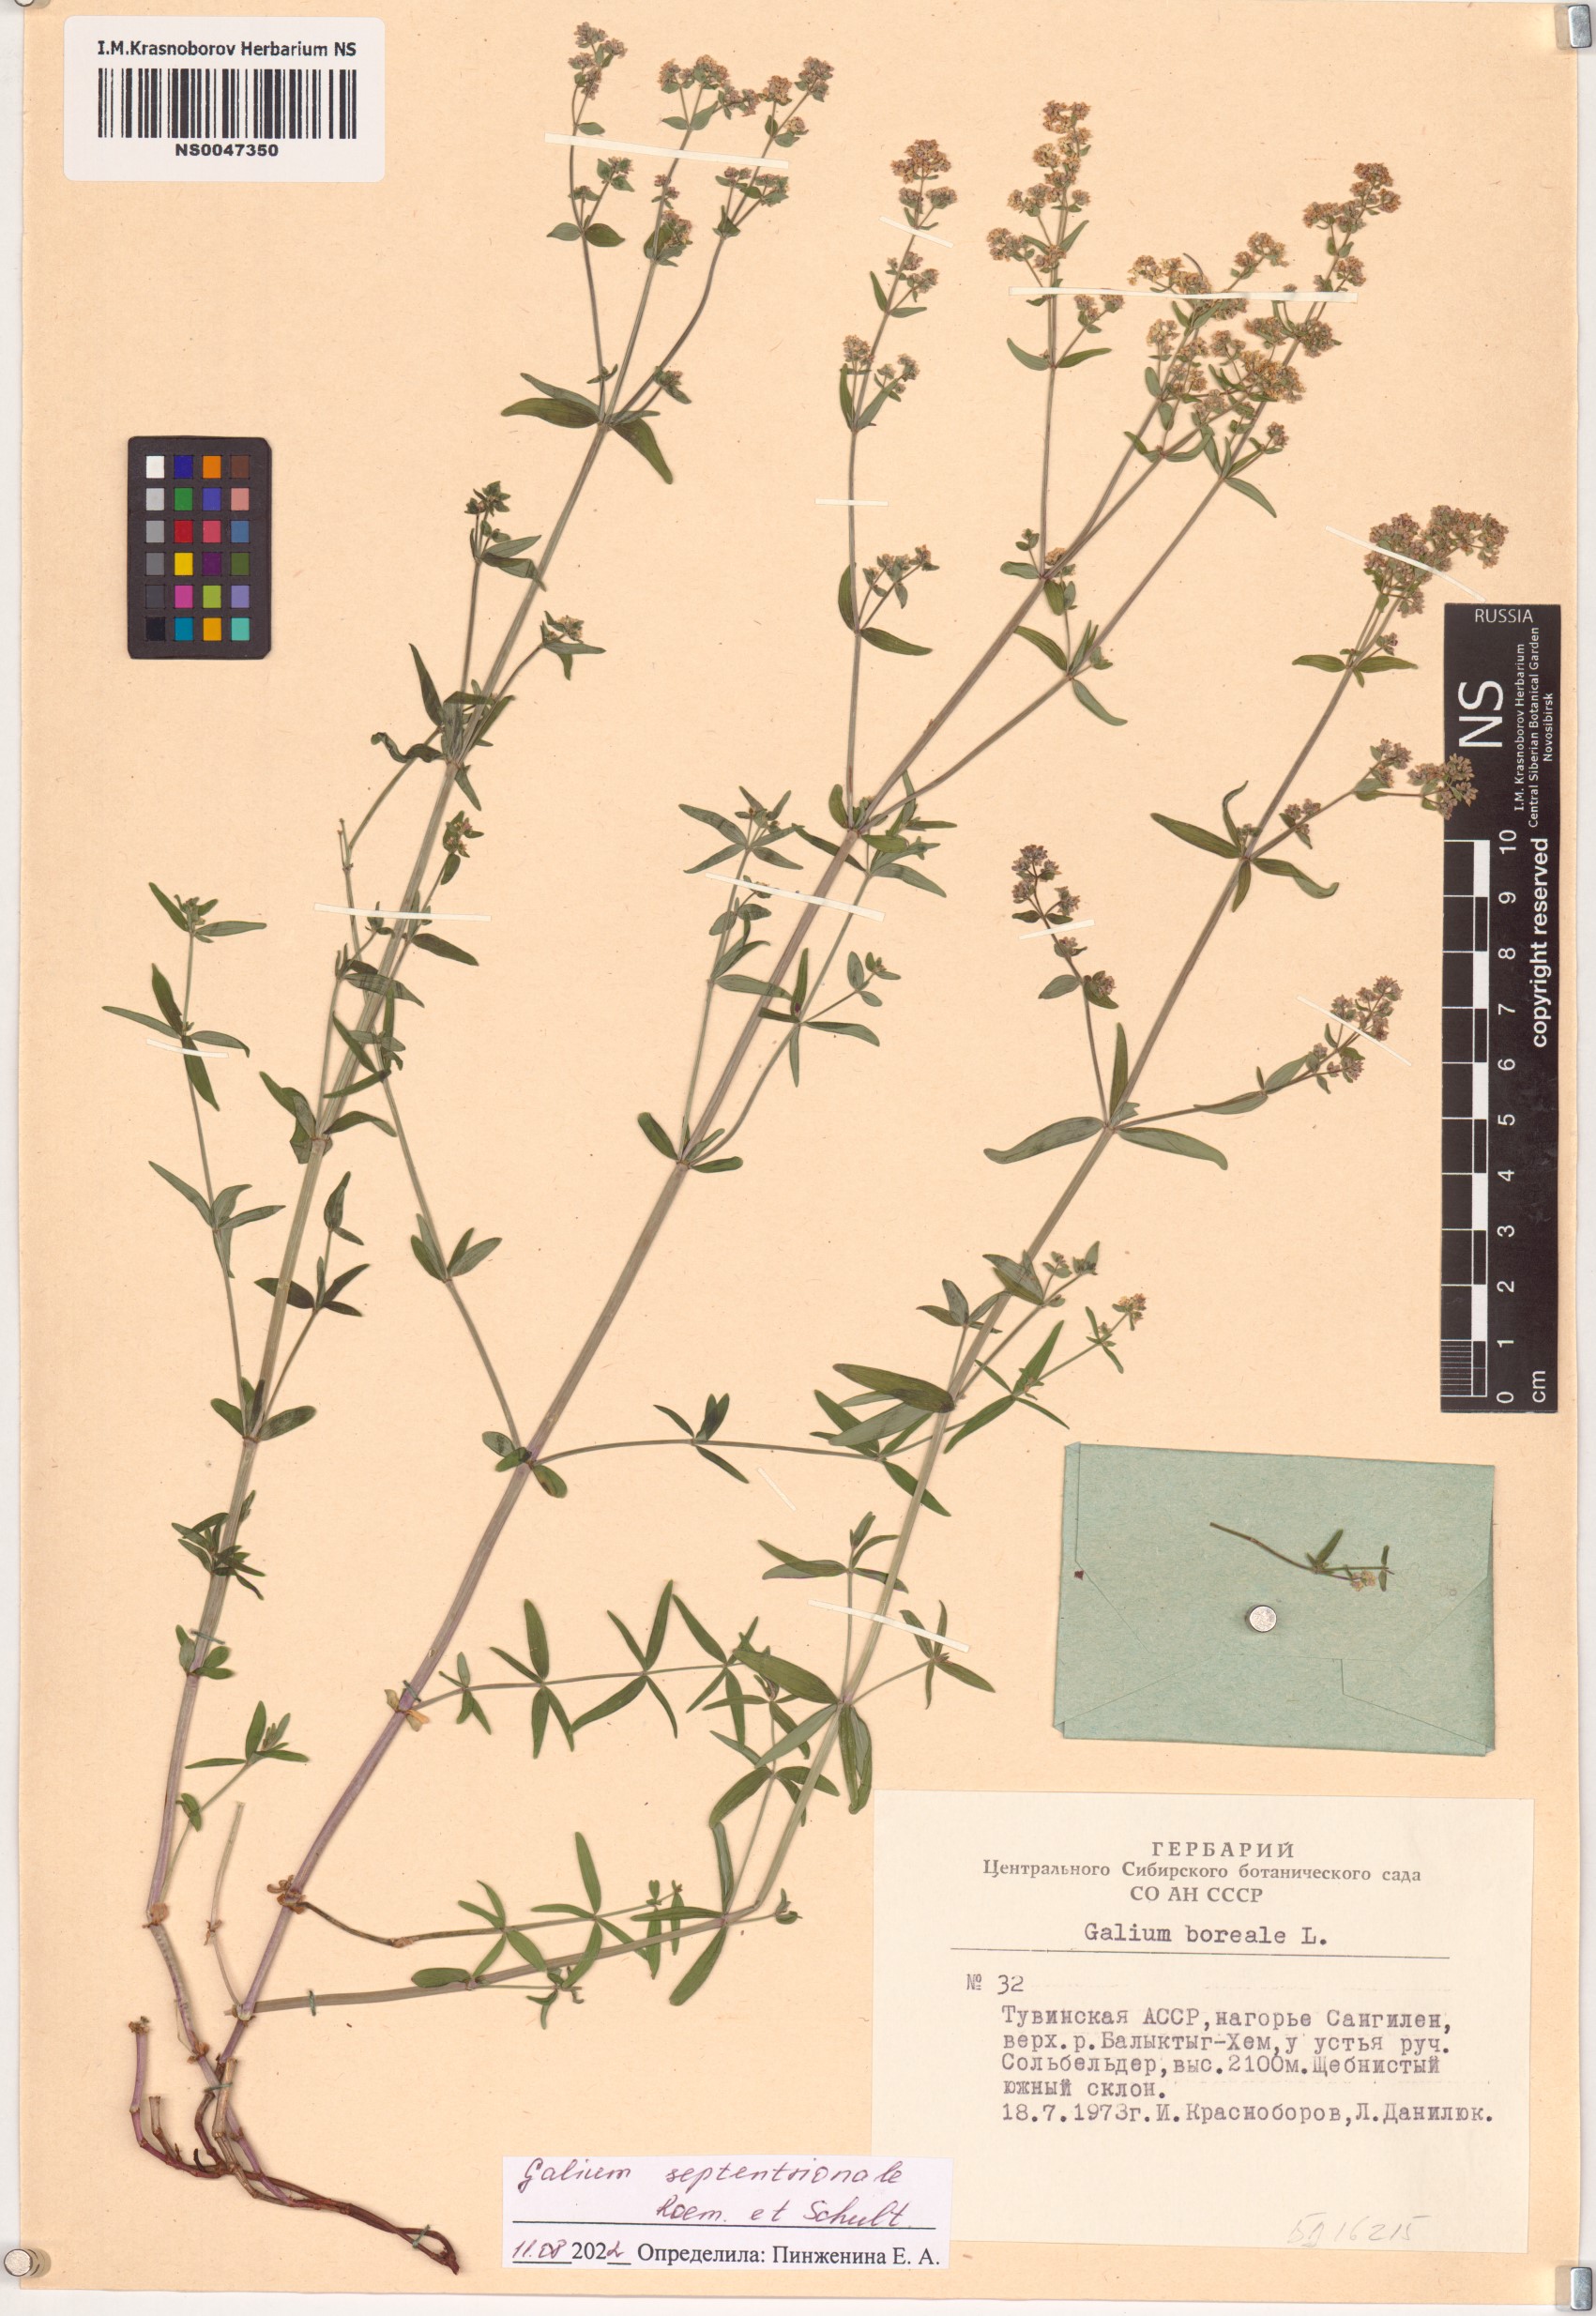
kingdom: Plantae
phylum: Tracheophyta
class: Magnoliopsida
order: Gentianales
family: Rubiaceae
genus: Galium
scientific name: Galium boreale
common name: Northern bedstraw
